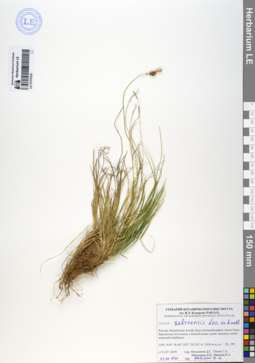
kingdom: Plantae
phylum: Tracheophyta
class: Liliopsida
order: Poales
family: Cyperaceae
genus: Carex
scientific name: Carex umbrosa
